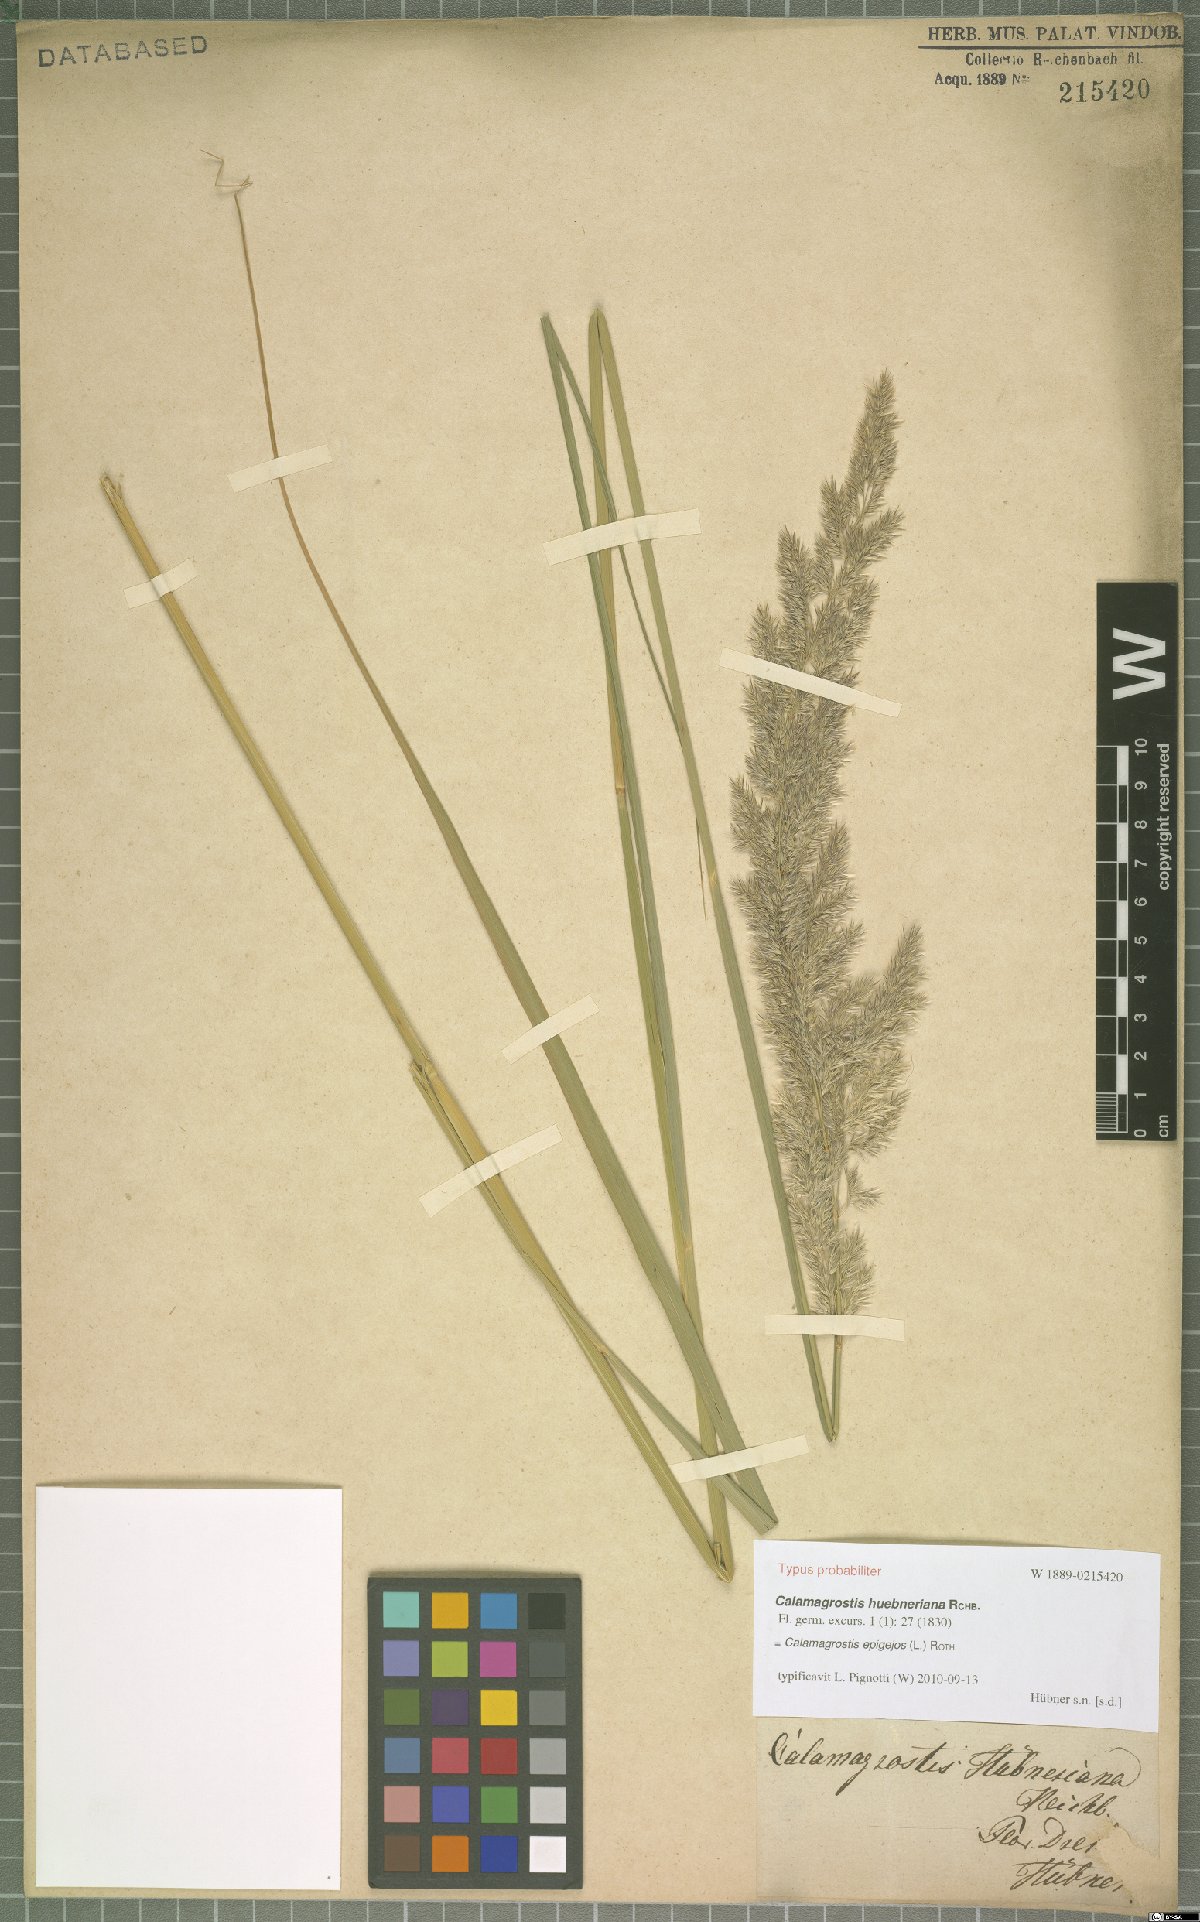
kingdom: Plantae
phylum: Tracheophyta
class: Liliopsida
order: Poales
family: Poaceae
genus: Calamagrostis
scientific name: Calamagrostis epigejos
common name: Wood small-reed
